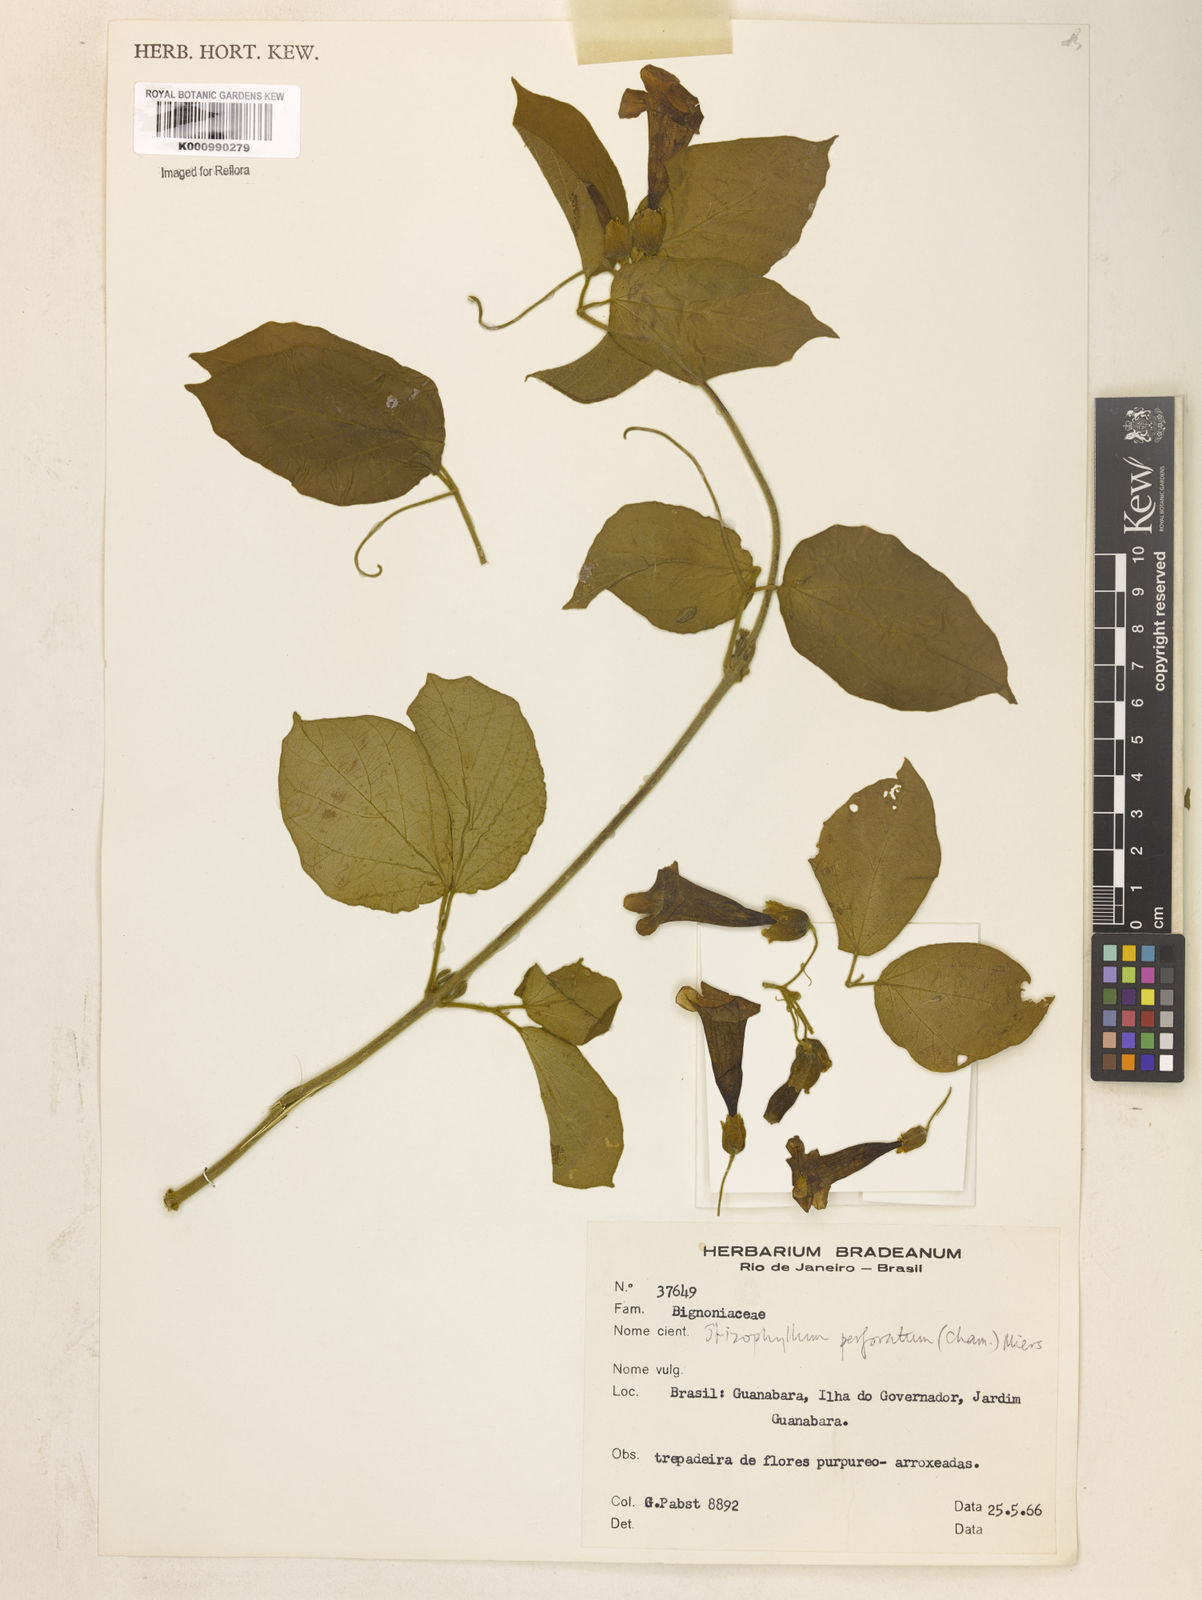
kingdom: Plantae
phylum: Tracheophyta
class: Magnoliopsida
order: Lamiales
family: Bignoniaceae
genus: Stizophyllum
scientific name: Stizophyllum perforatum
